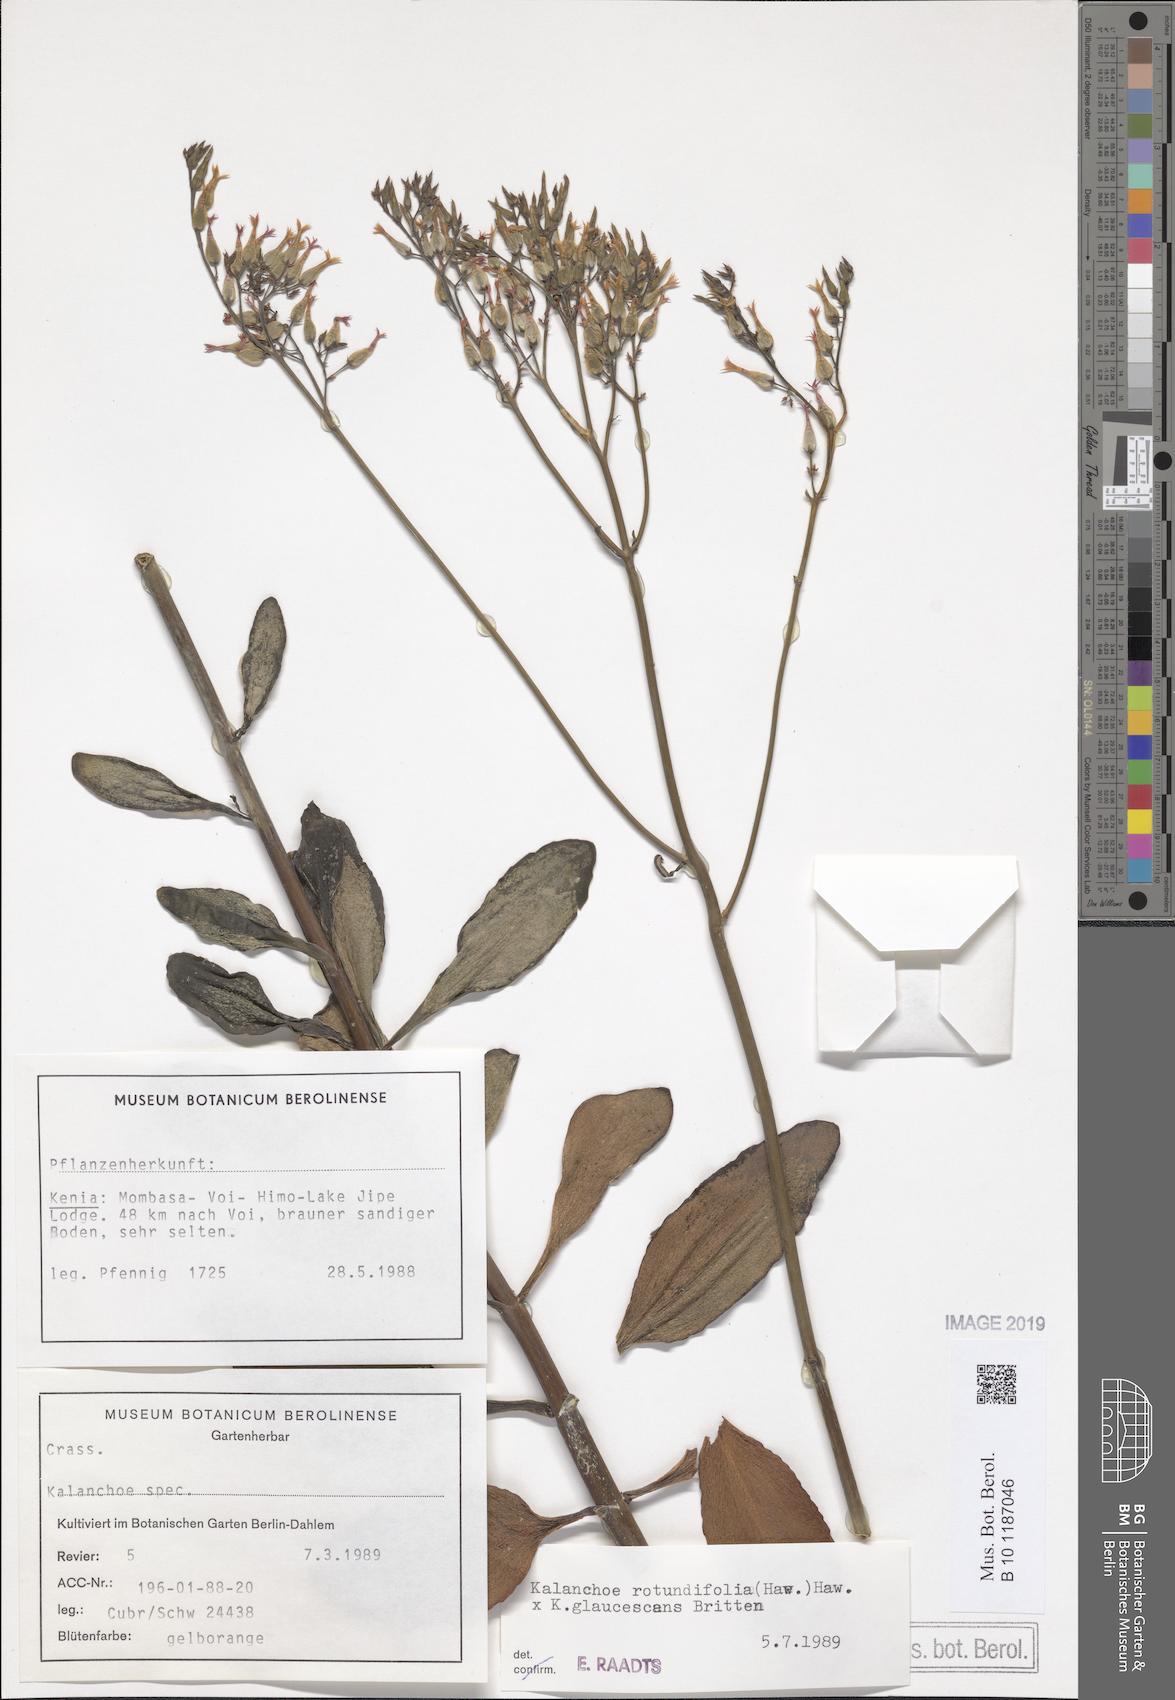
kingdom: Plantae
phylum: Tracheophyta
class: Magnoliopsida
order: Saxifragales
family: Crassulaceae
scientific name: Crassulaceae
